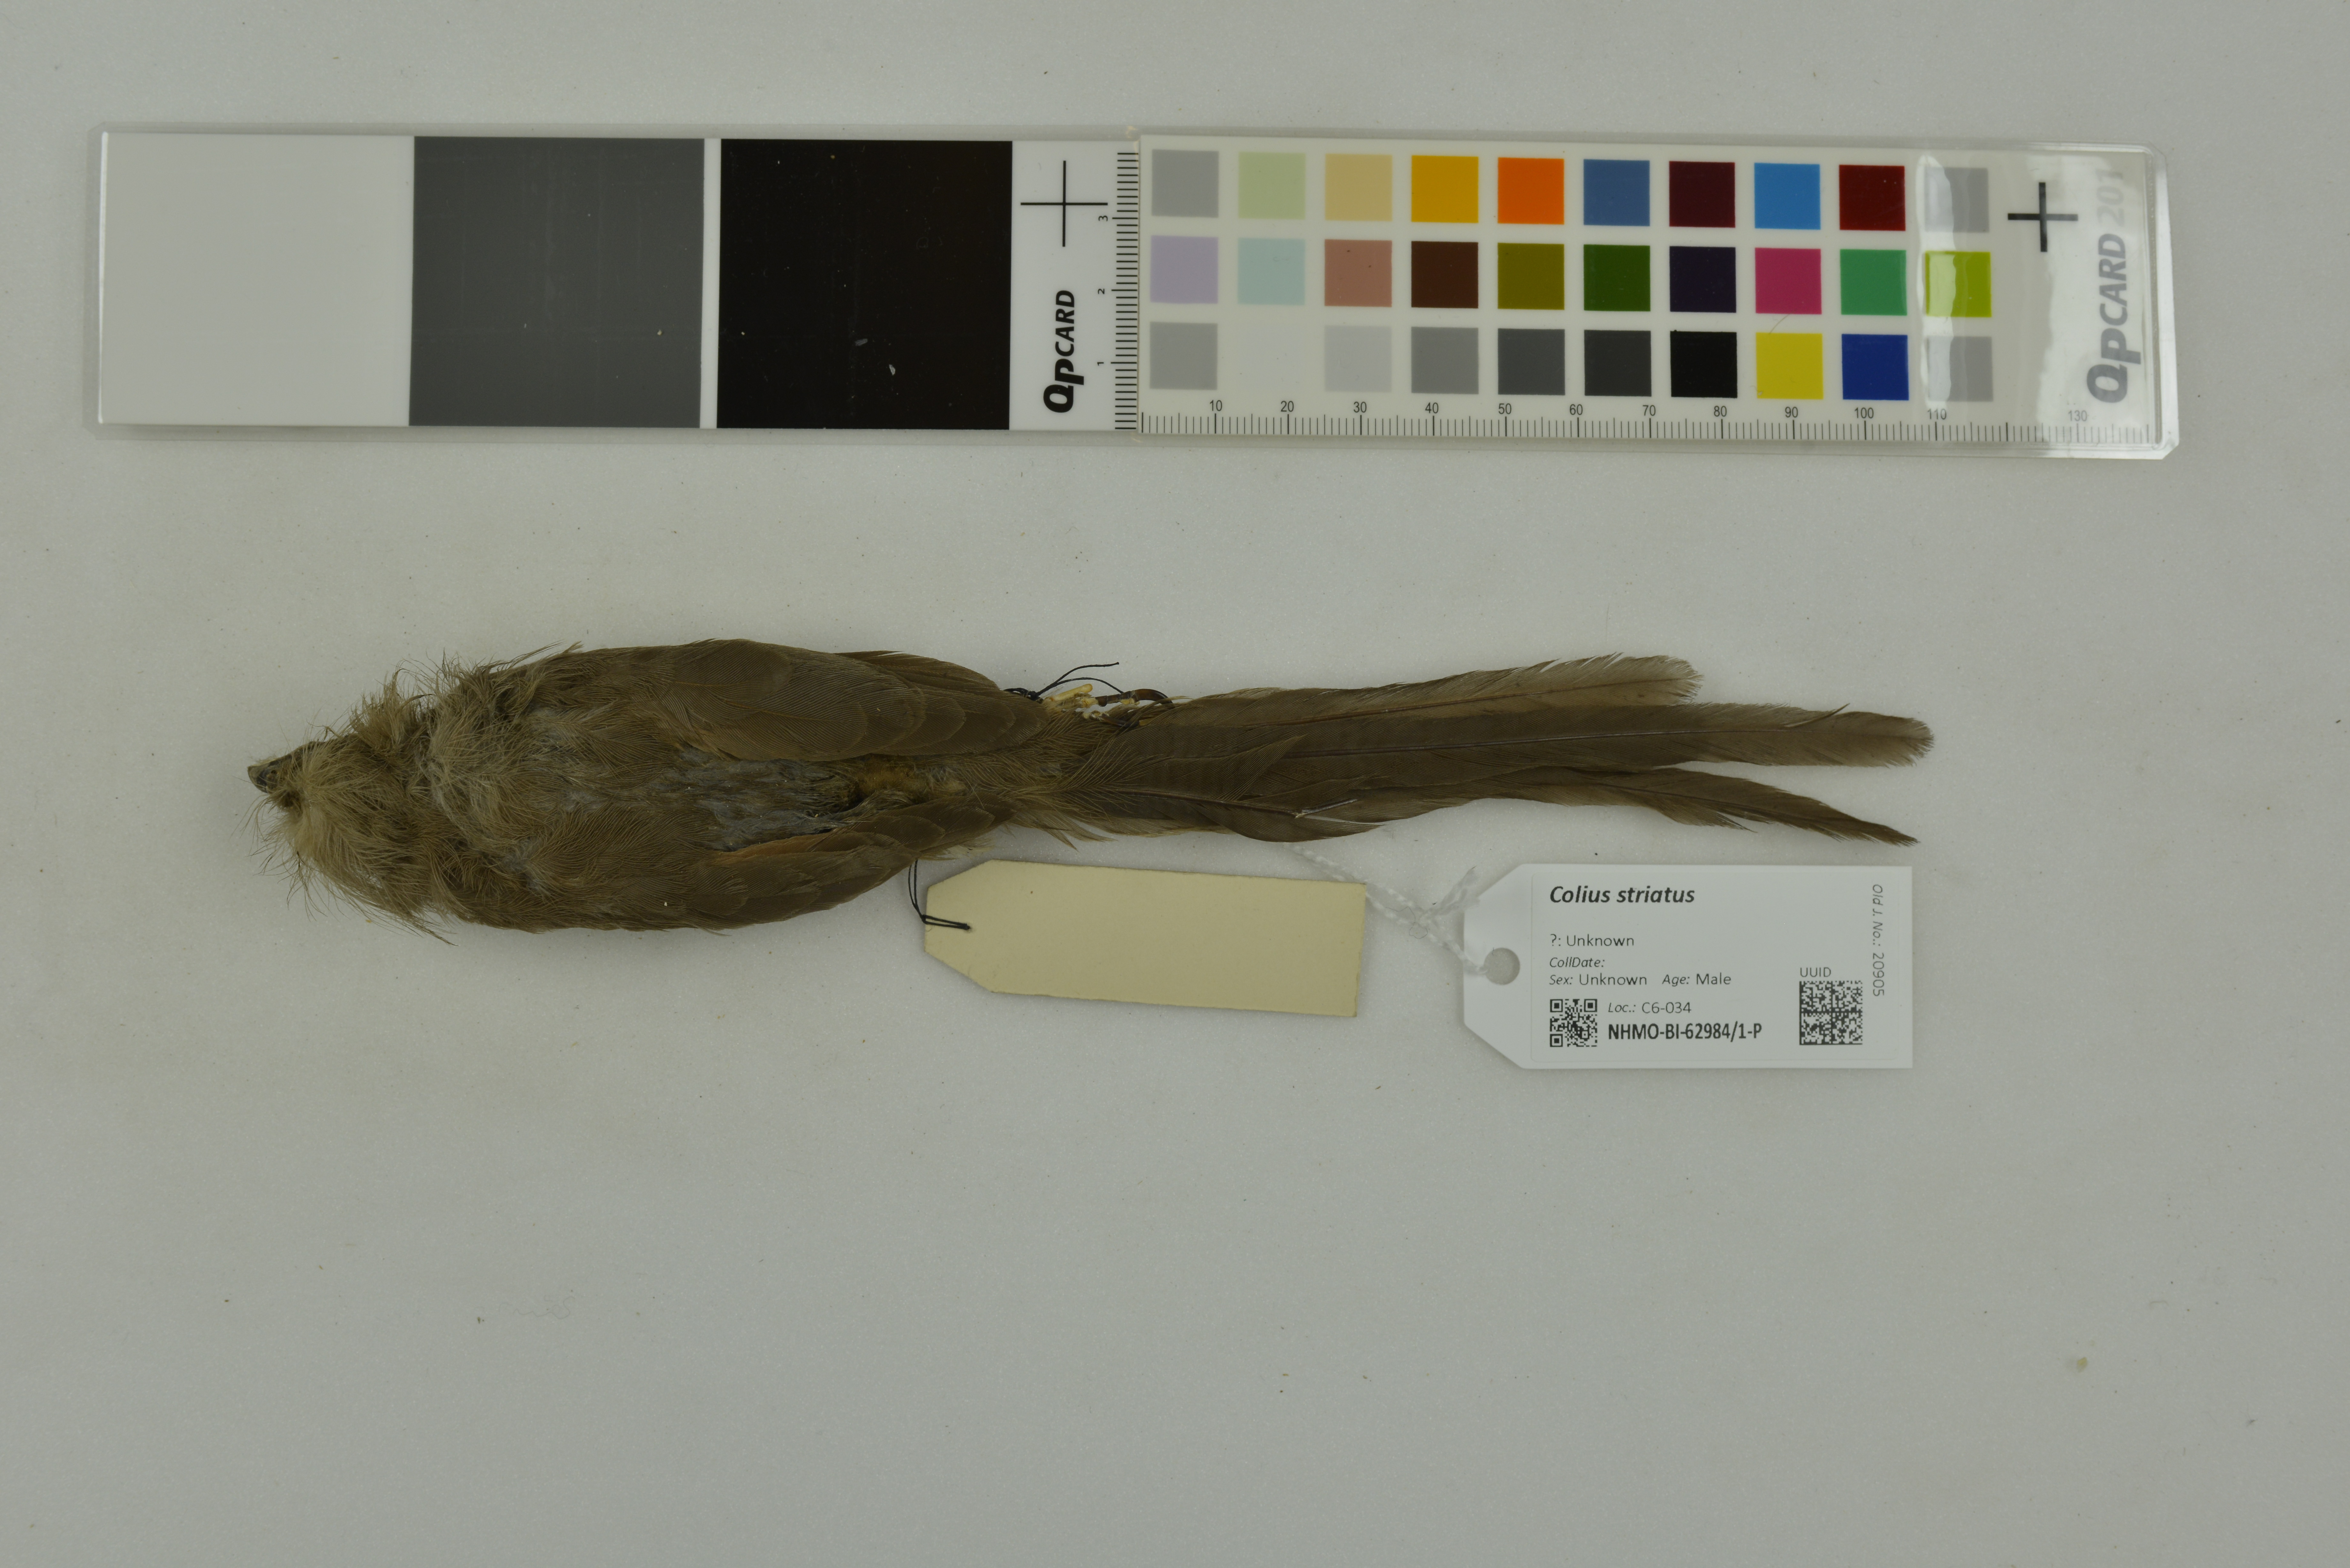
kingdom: Animalia
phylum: Chordata
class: Aves
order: Coliiformes
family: Coliidae
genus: Colius
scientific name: Colius striatus
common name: Speckled mousebird
